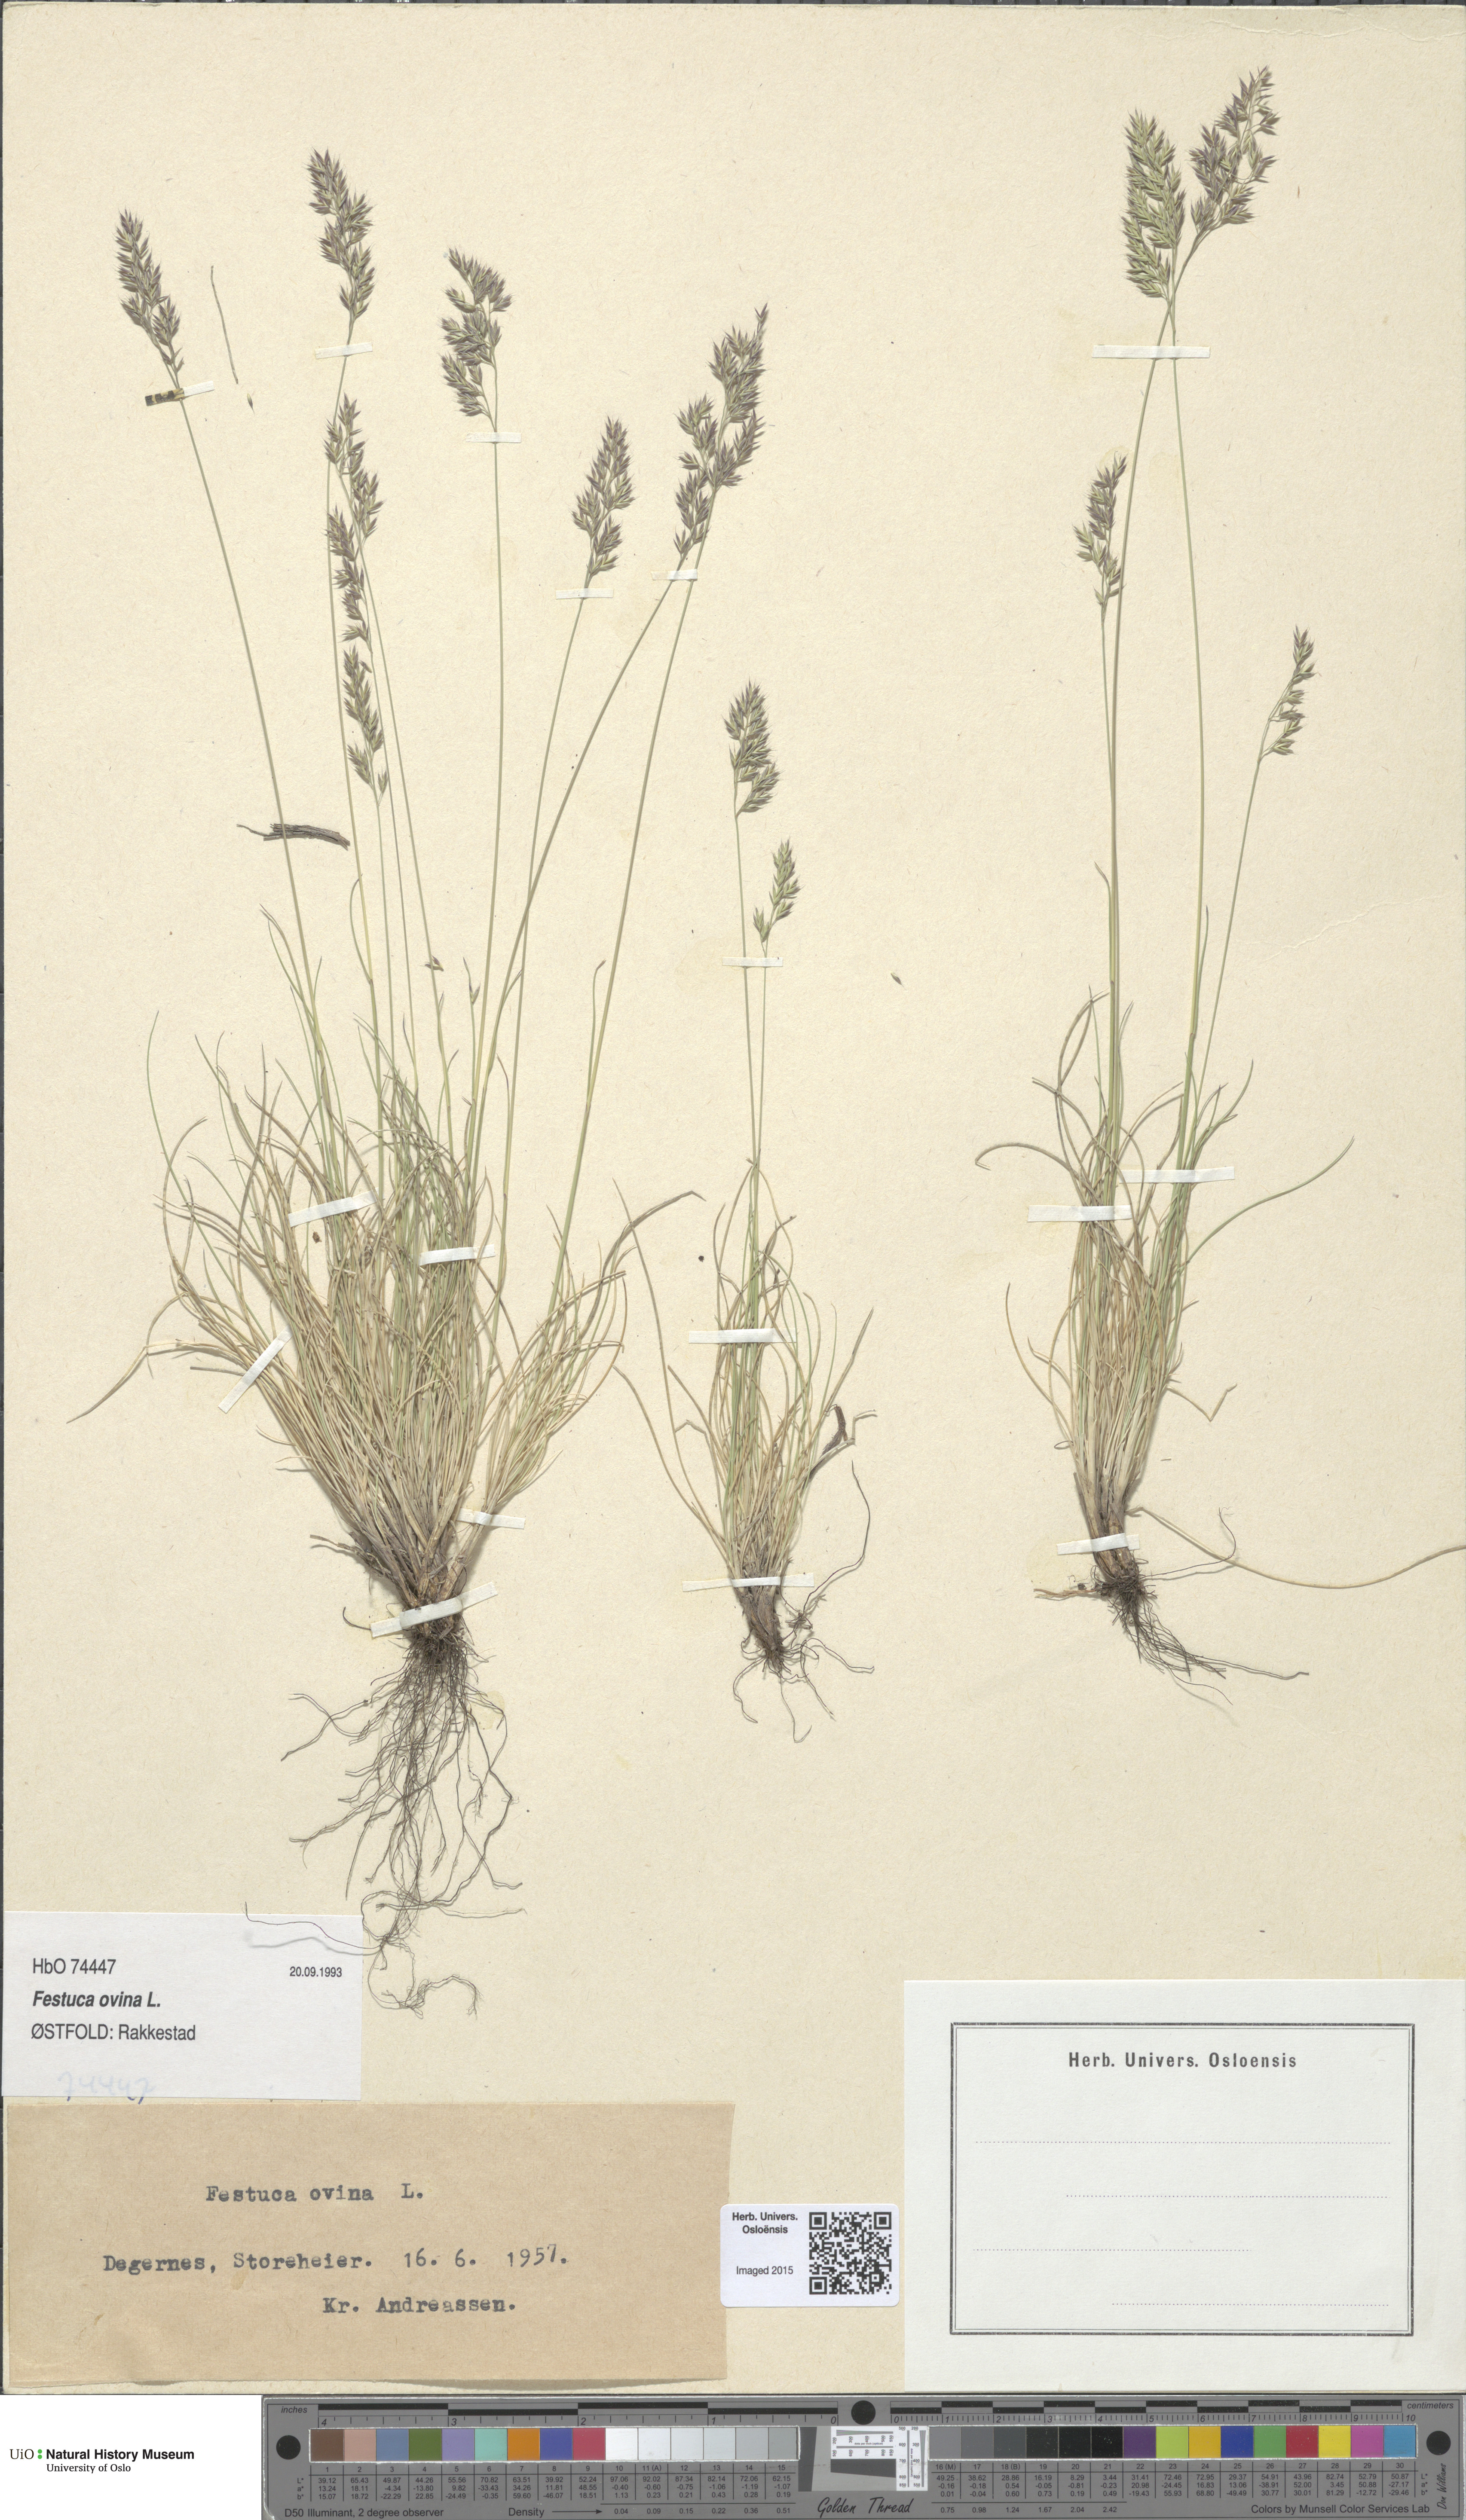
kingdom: Plantae
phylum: Tracheophyta
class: Liliopsida
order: Poales
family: Poaceae
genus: Festuca
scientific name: Festuca ovina
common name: Sheep fescue
